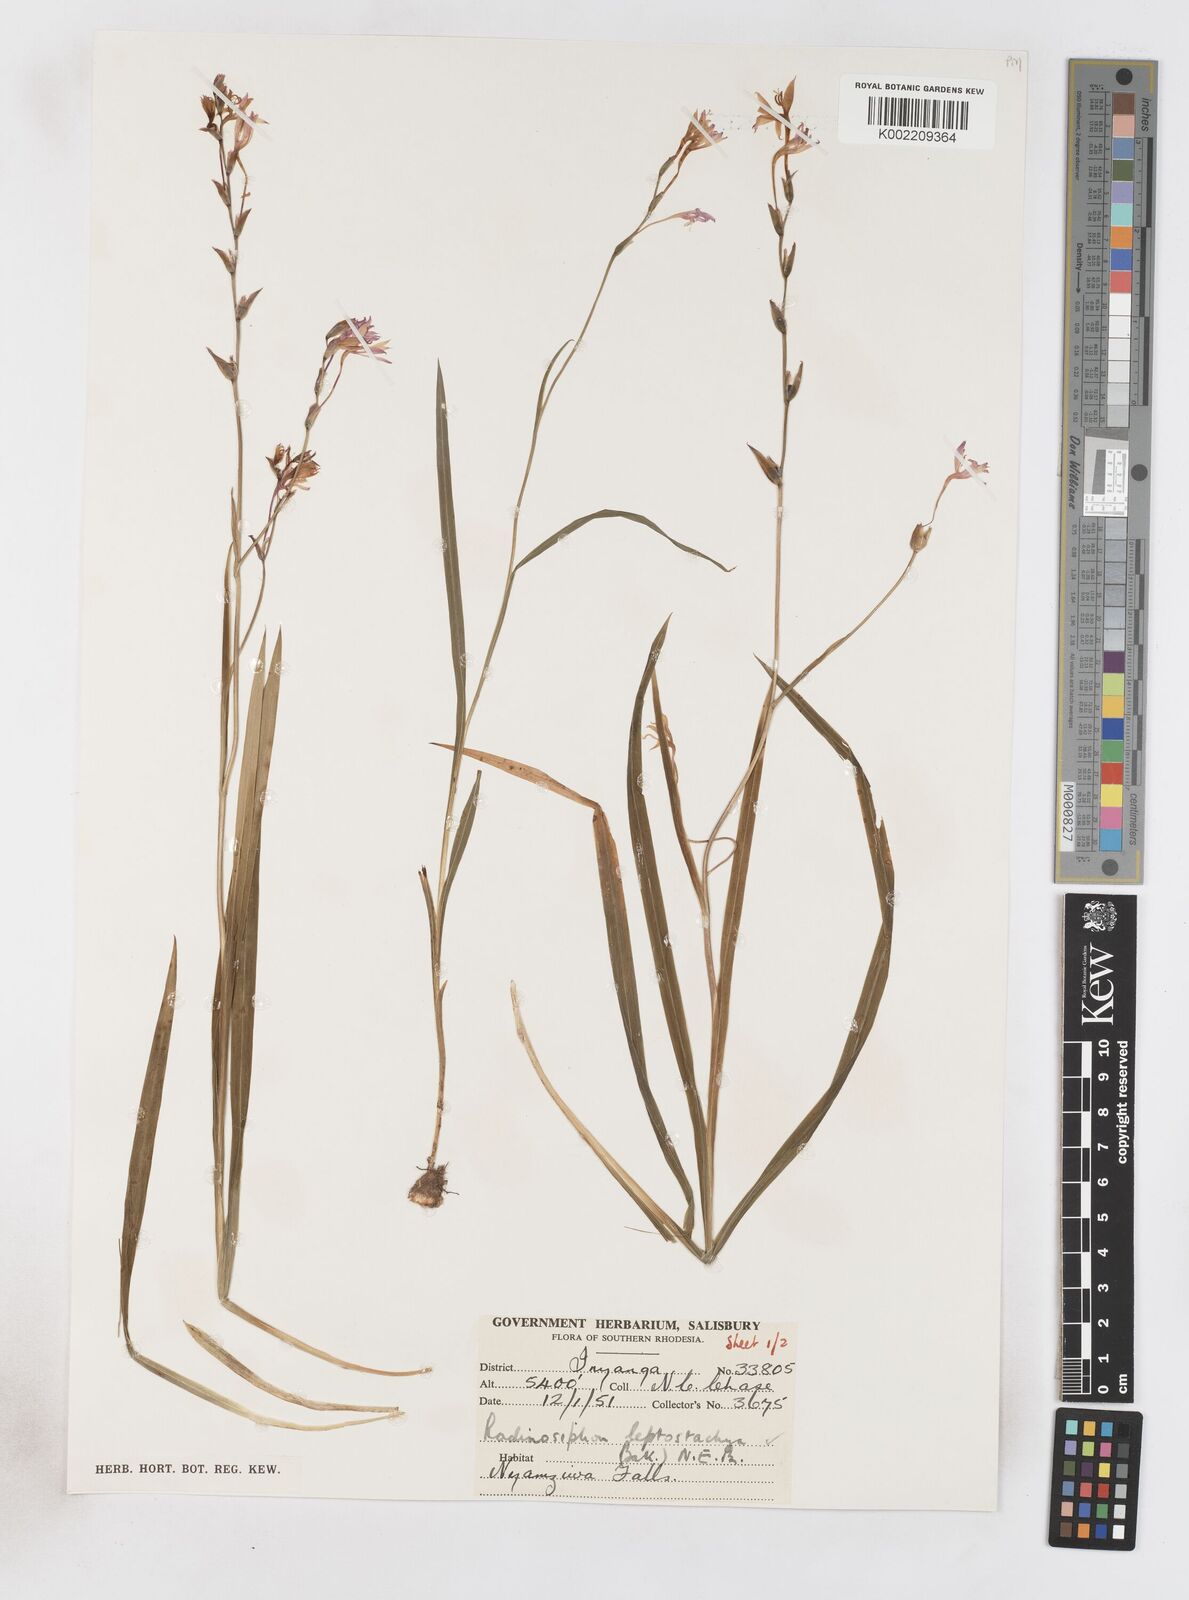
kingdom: Plantae
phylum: Tracheophyta
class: Liliopsida
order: Asparagales
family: Iridaceae
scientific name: Iridaceae
